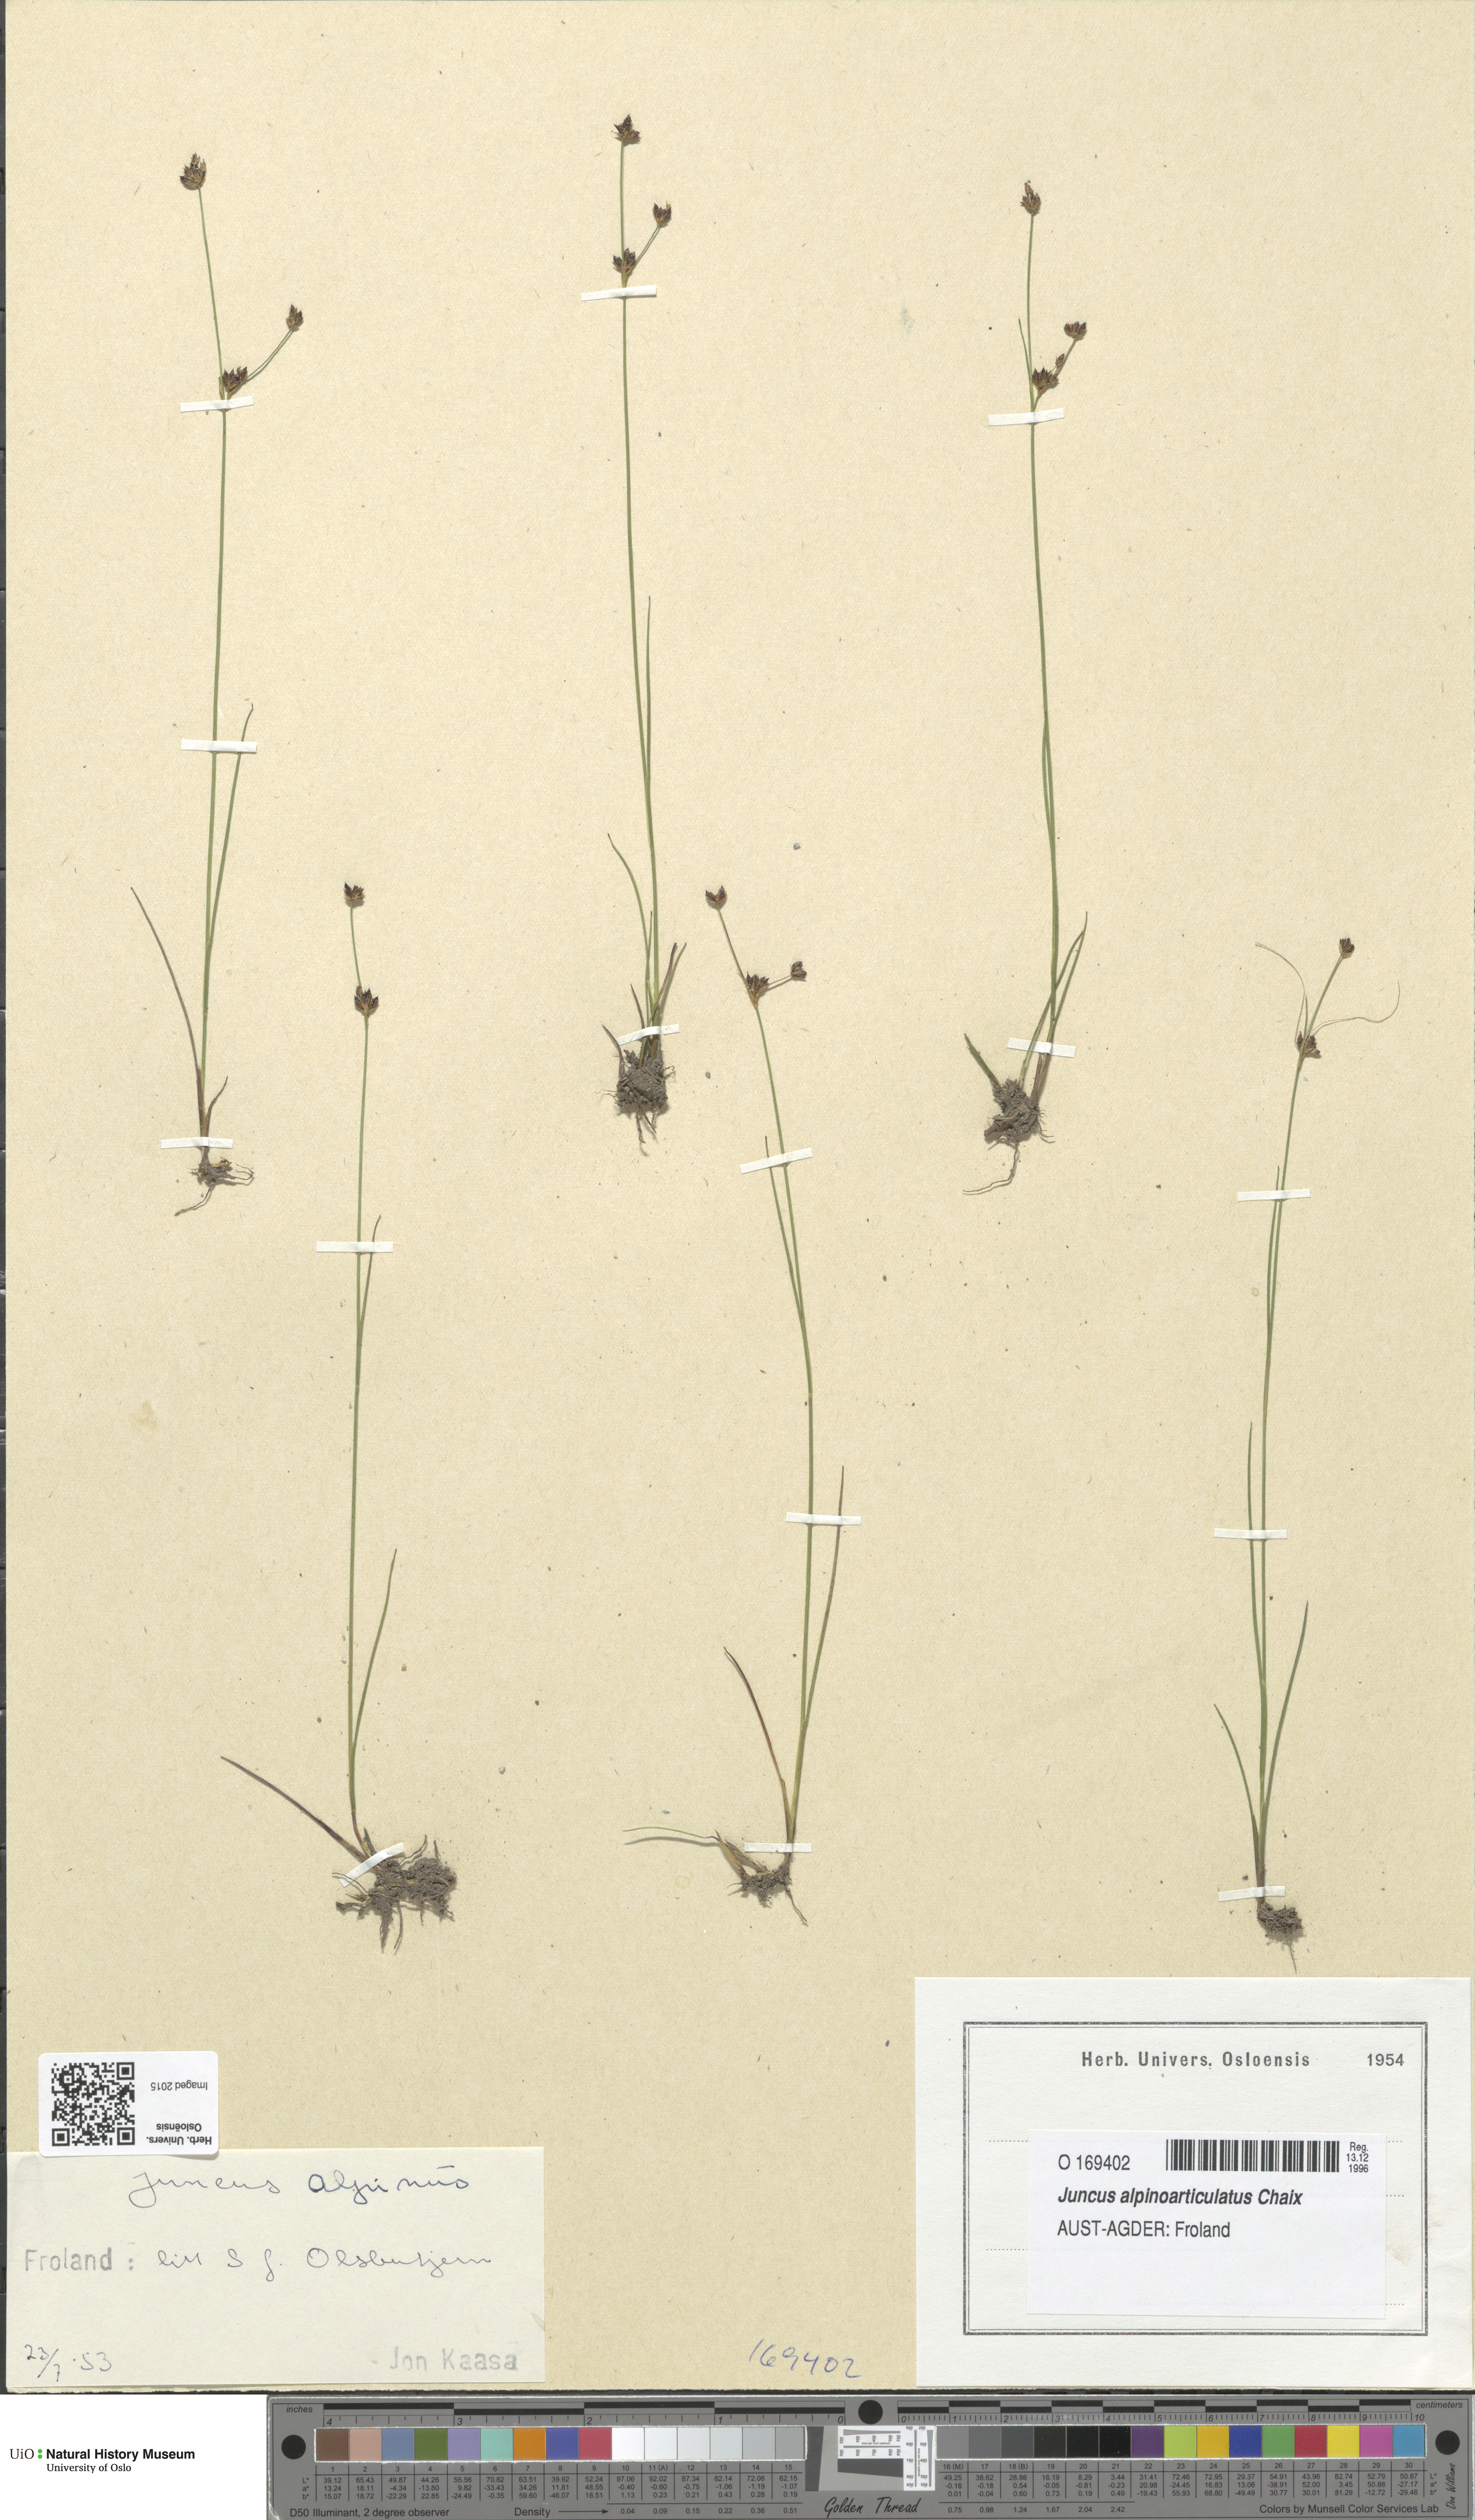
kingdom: Plantae
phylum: Tracheophyta
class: Liliopsida
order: Poales
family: Juncaceae
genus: Juncus
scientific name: Juncus alpinoarticulatus
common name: Alpine rush
